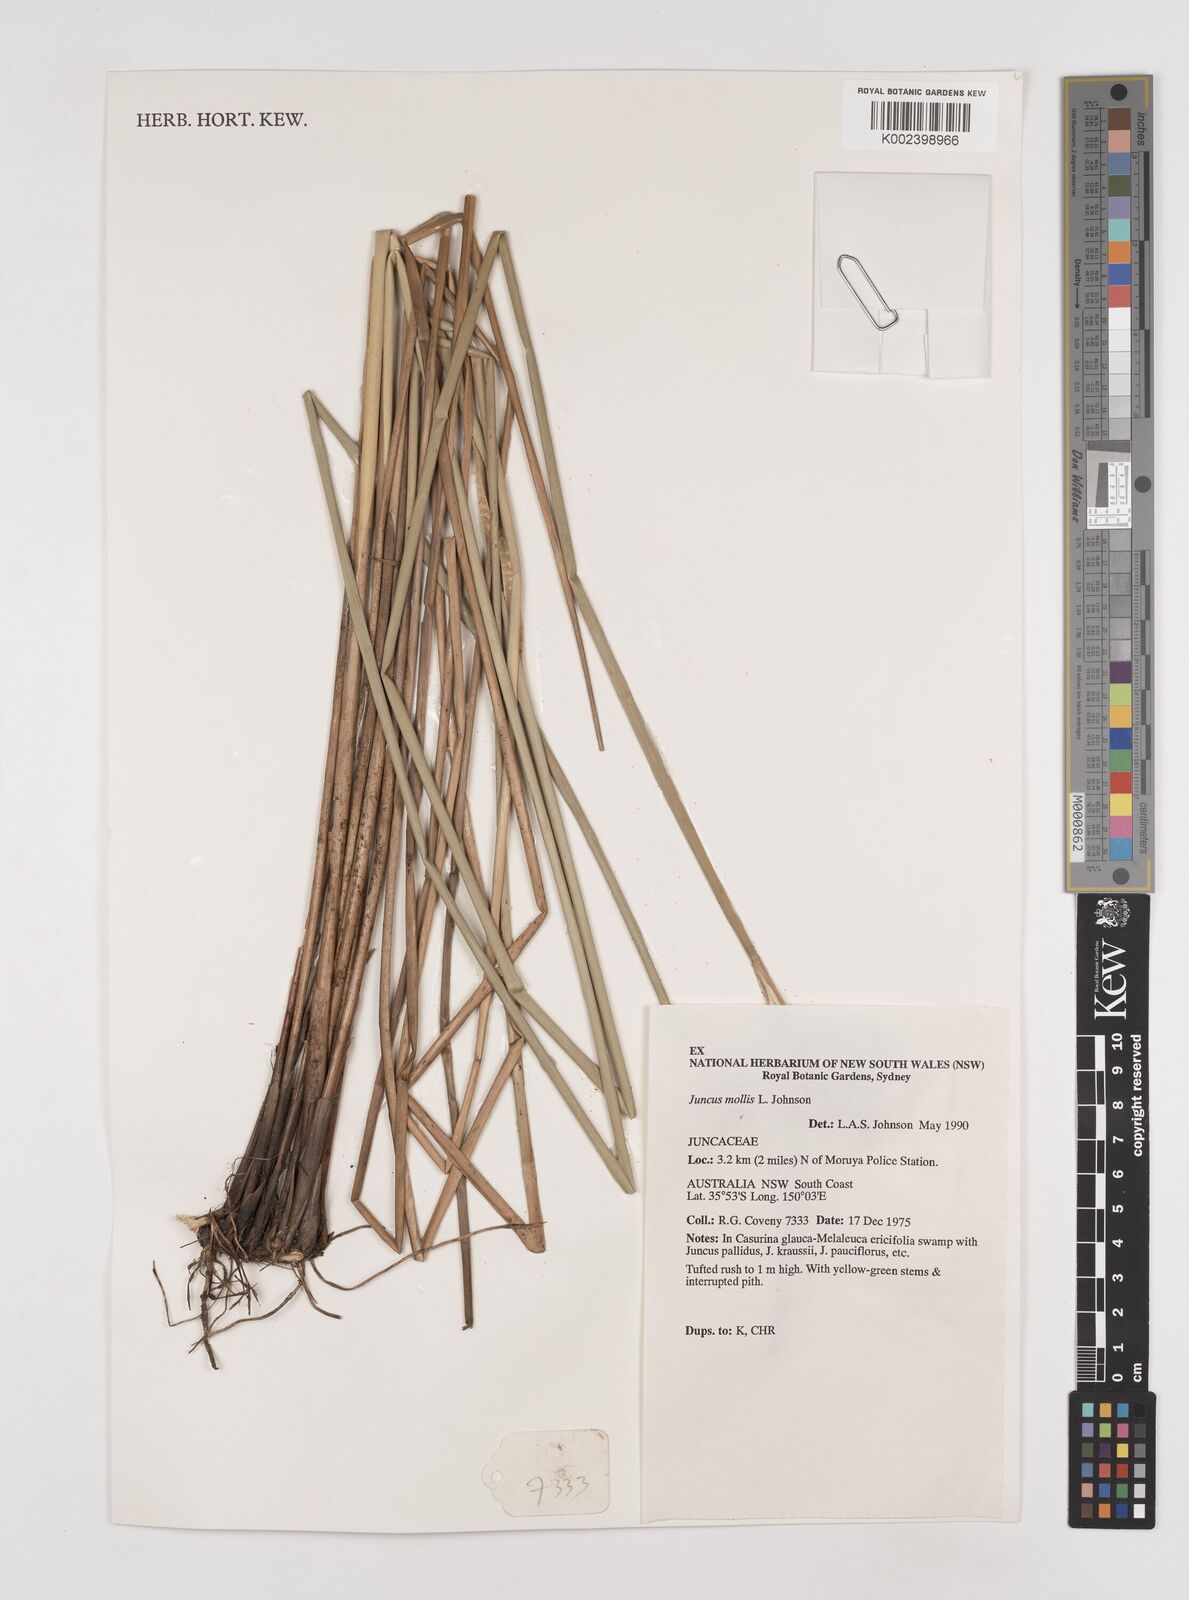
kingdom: Plantae
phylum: Tracheophyta
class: Liliopsida
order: Poales
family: Juncaceae
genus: Juncus
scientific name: Juncus mollis
